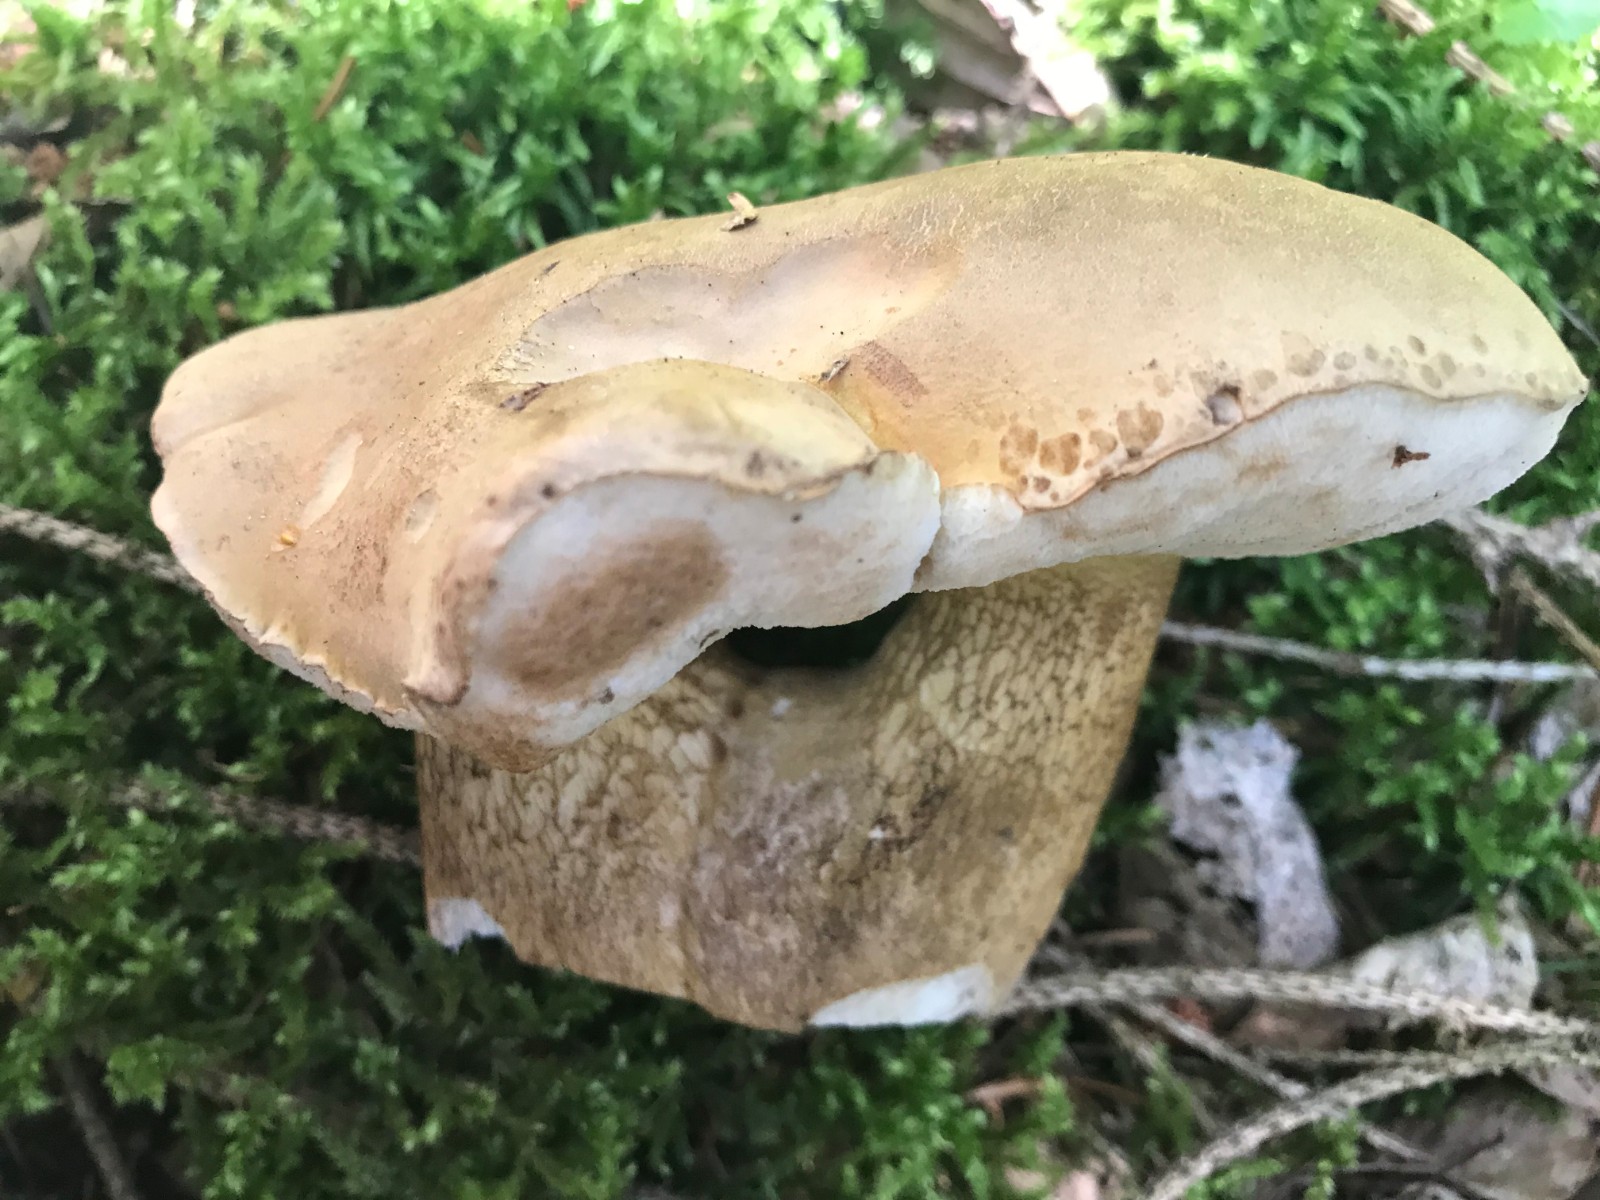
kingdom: Fungi
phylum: Basidiomycota
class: Agaricomycetes
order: Boletales
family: Boletaceae
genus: Tylopilus
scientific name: Tylopilus felleus
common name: galderørhat
